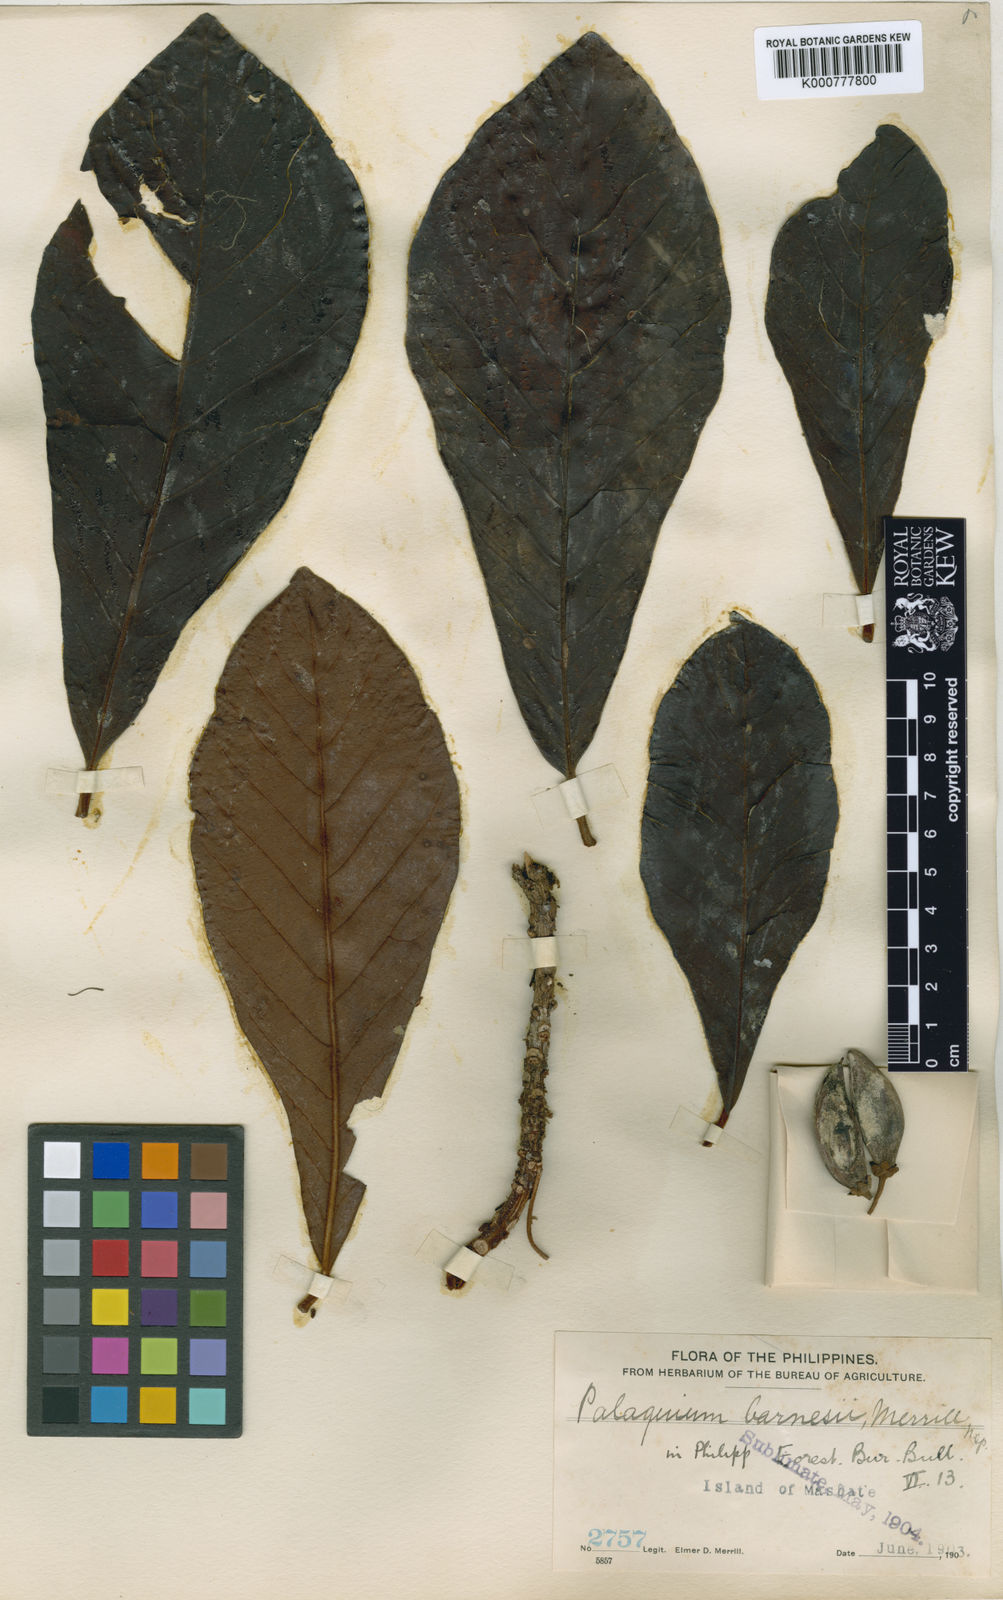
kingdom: Plantae
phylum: Tracheophyta
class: Magnoliopsida
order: Ericales
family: Sapotaceae
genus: Palaquium
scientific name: Palaquium barnesii
